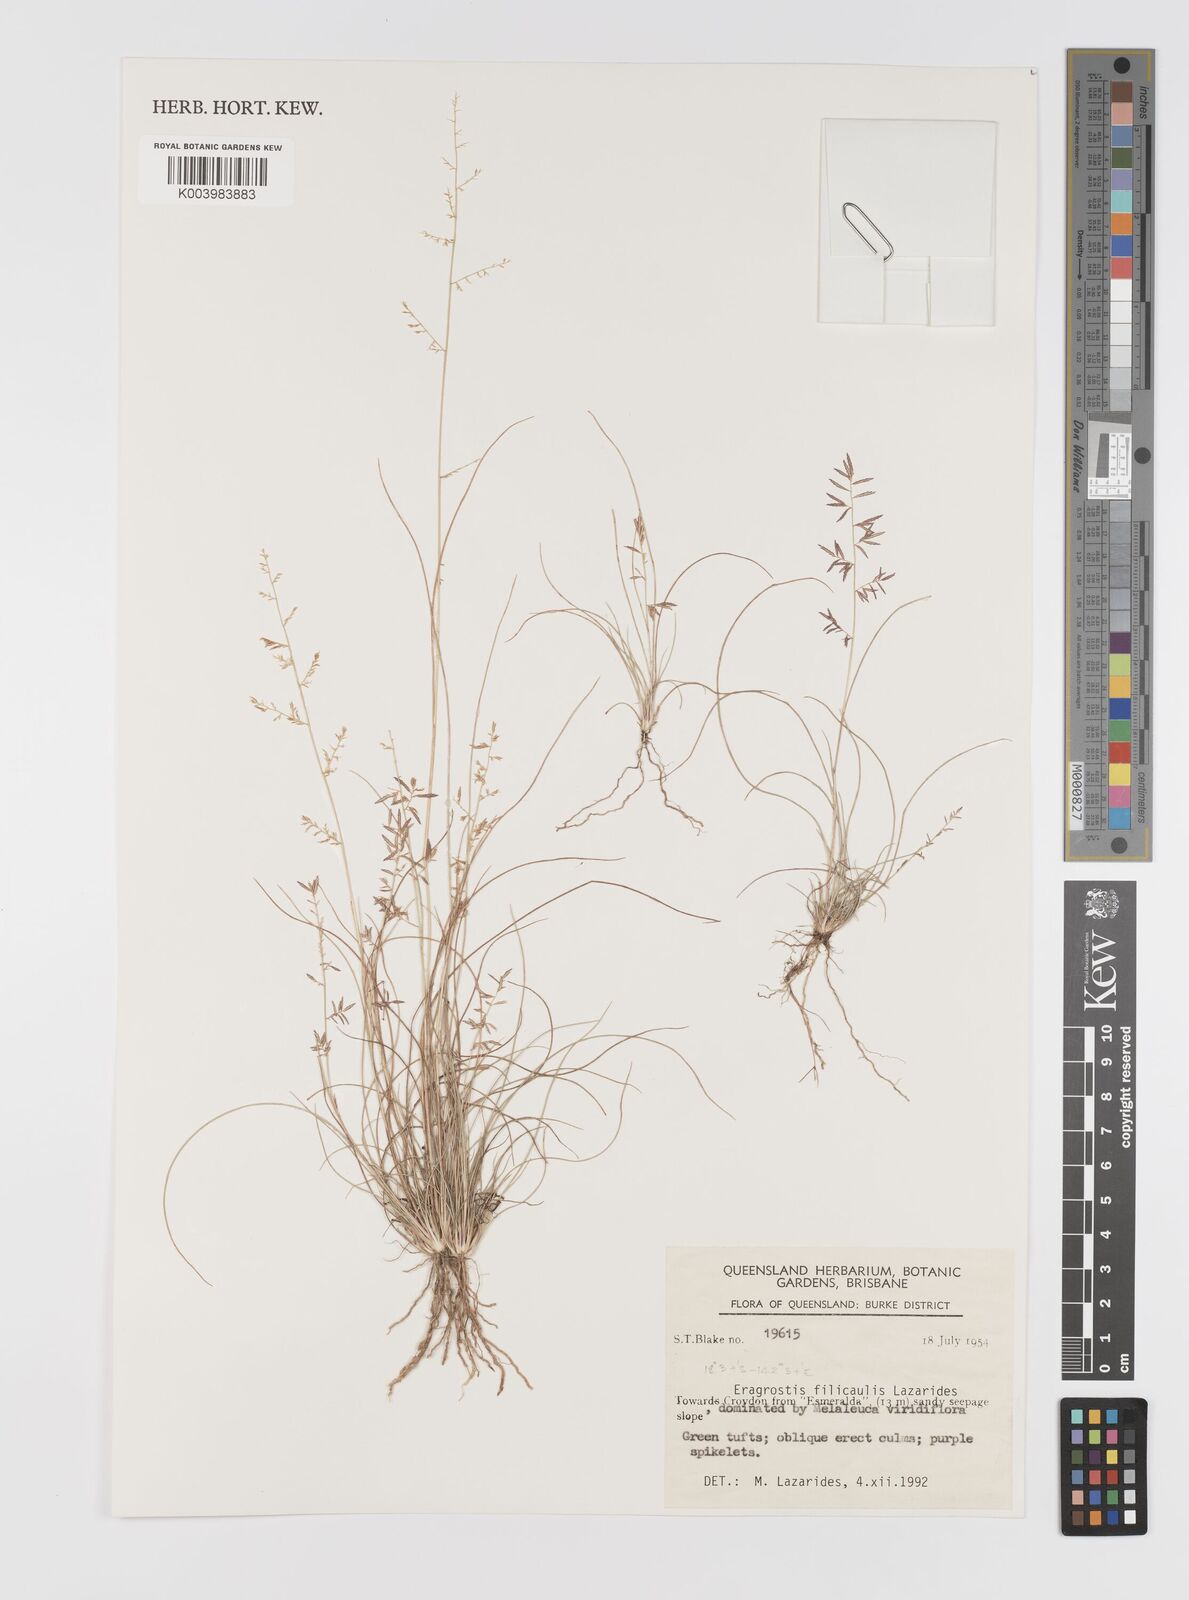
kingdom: Plantae
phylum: Tracheophyta
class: Liliopsida
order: Poales
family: Poaceae
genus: Eragrostis
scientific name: Eragrostis filicaulis
